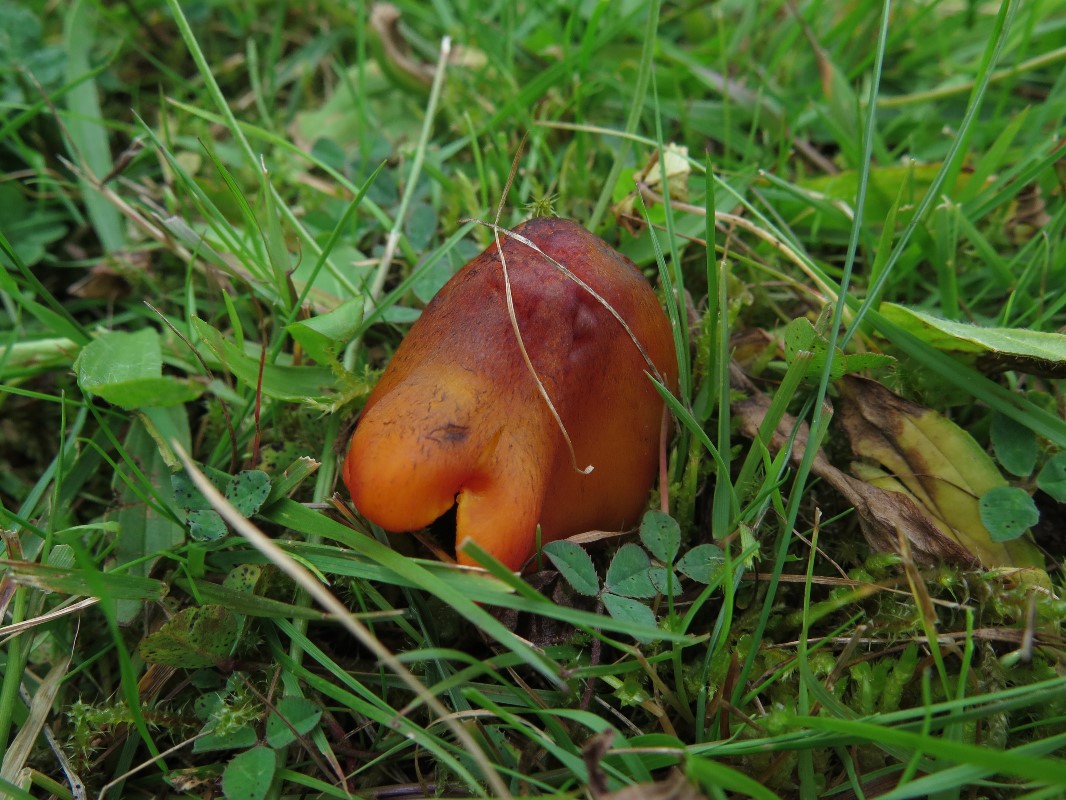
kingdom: Fungi
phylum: Basidiomycota
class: Agaricomycetes
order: Agaricales
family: Hygrophoraceae
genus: Hygrocybe
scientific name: Hygrocybe conica
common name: kegle-vokshat
